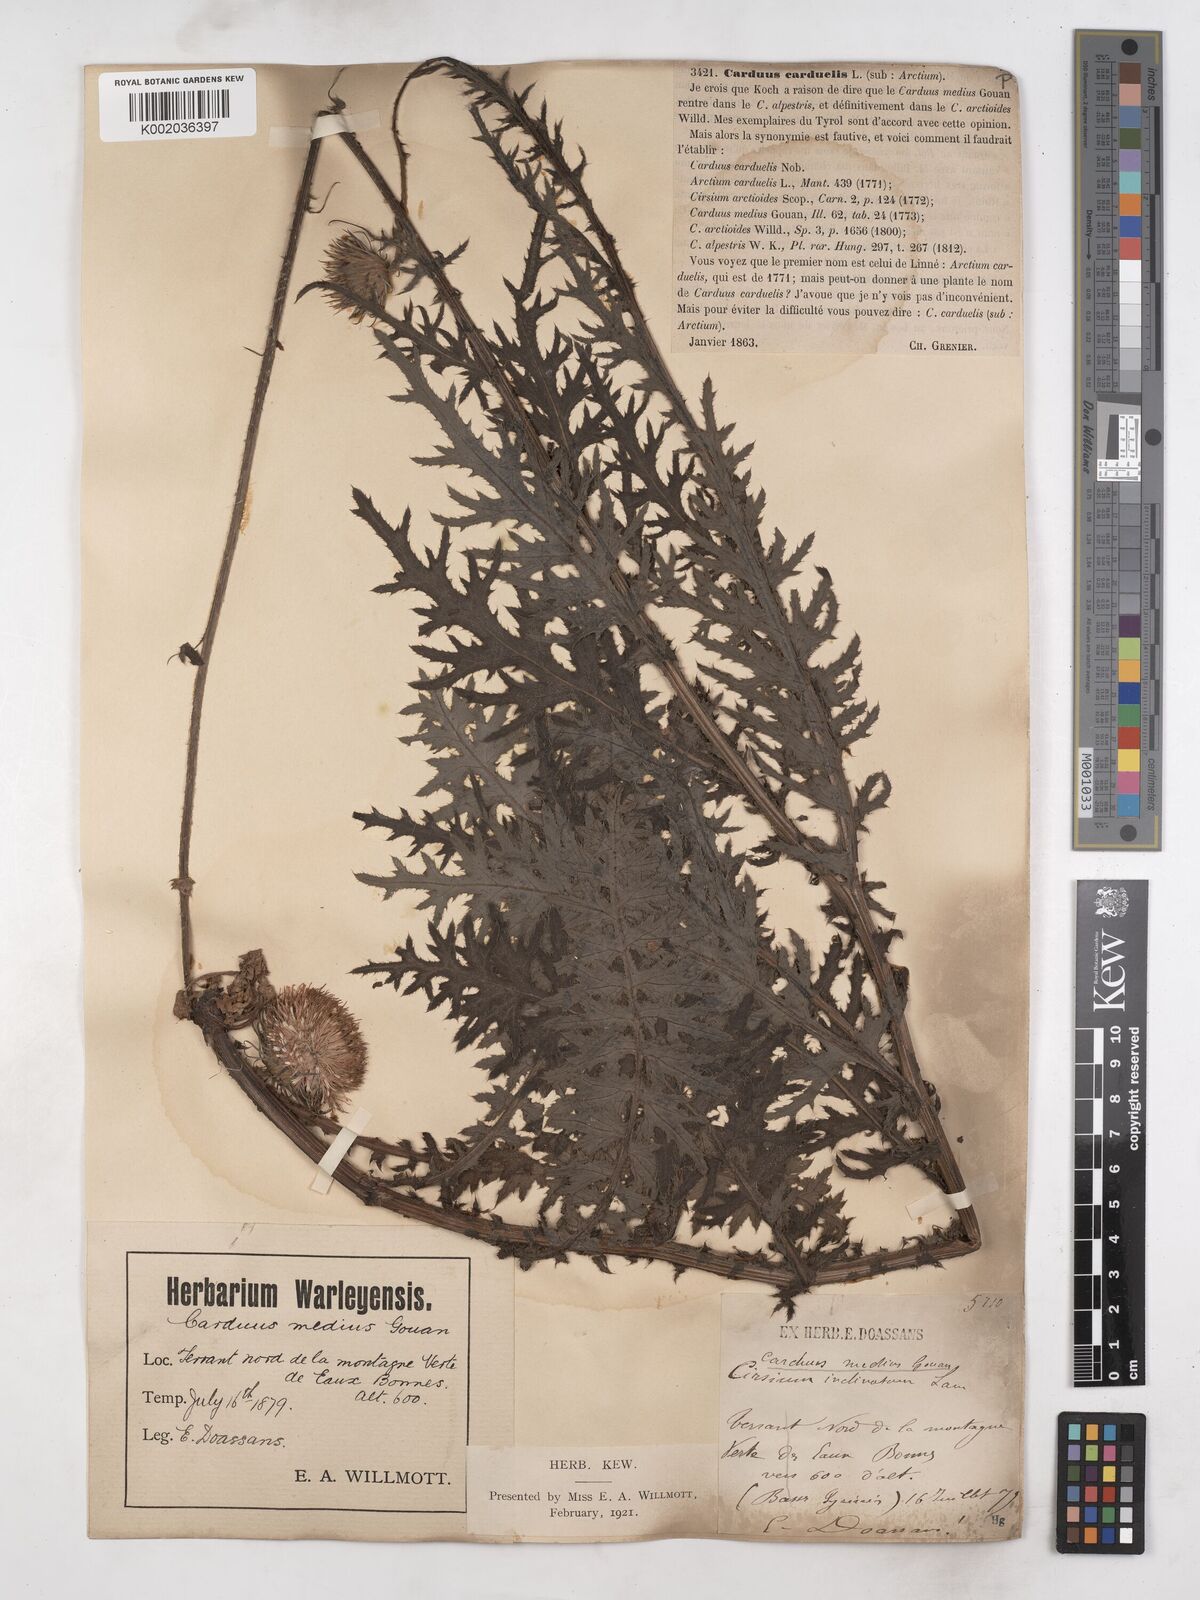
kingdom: Plantae
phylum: Tracheophyta
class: Magnoliopsida
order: Asterales
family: Asteraceae
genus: Carduus
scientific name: Carduus defloratus
